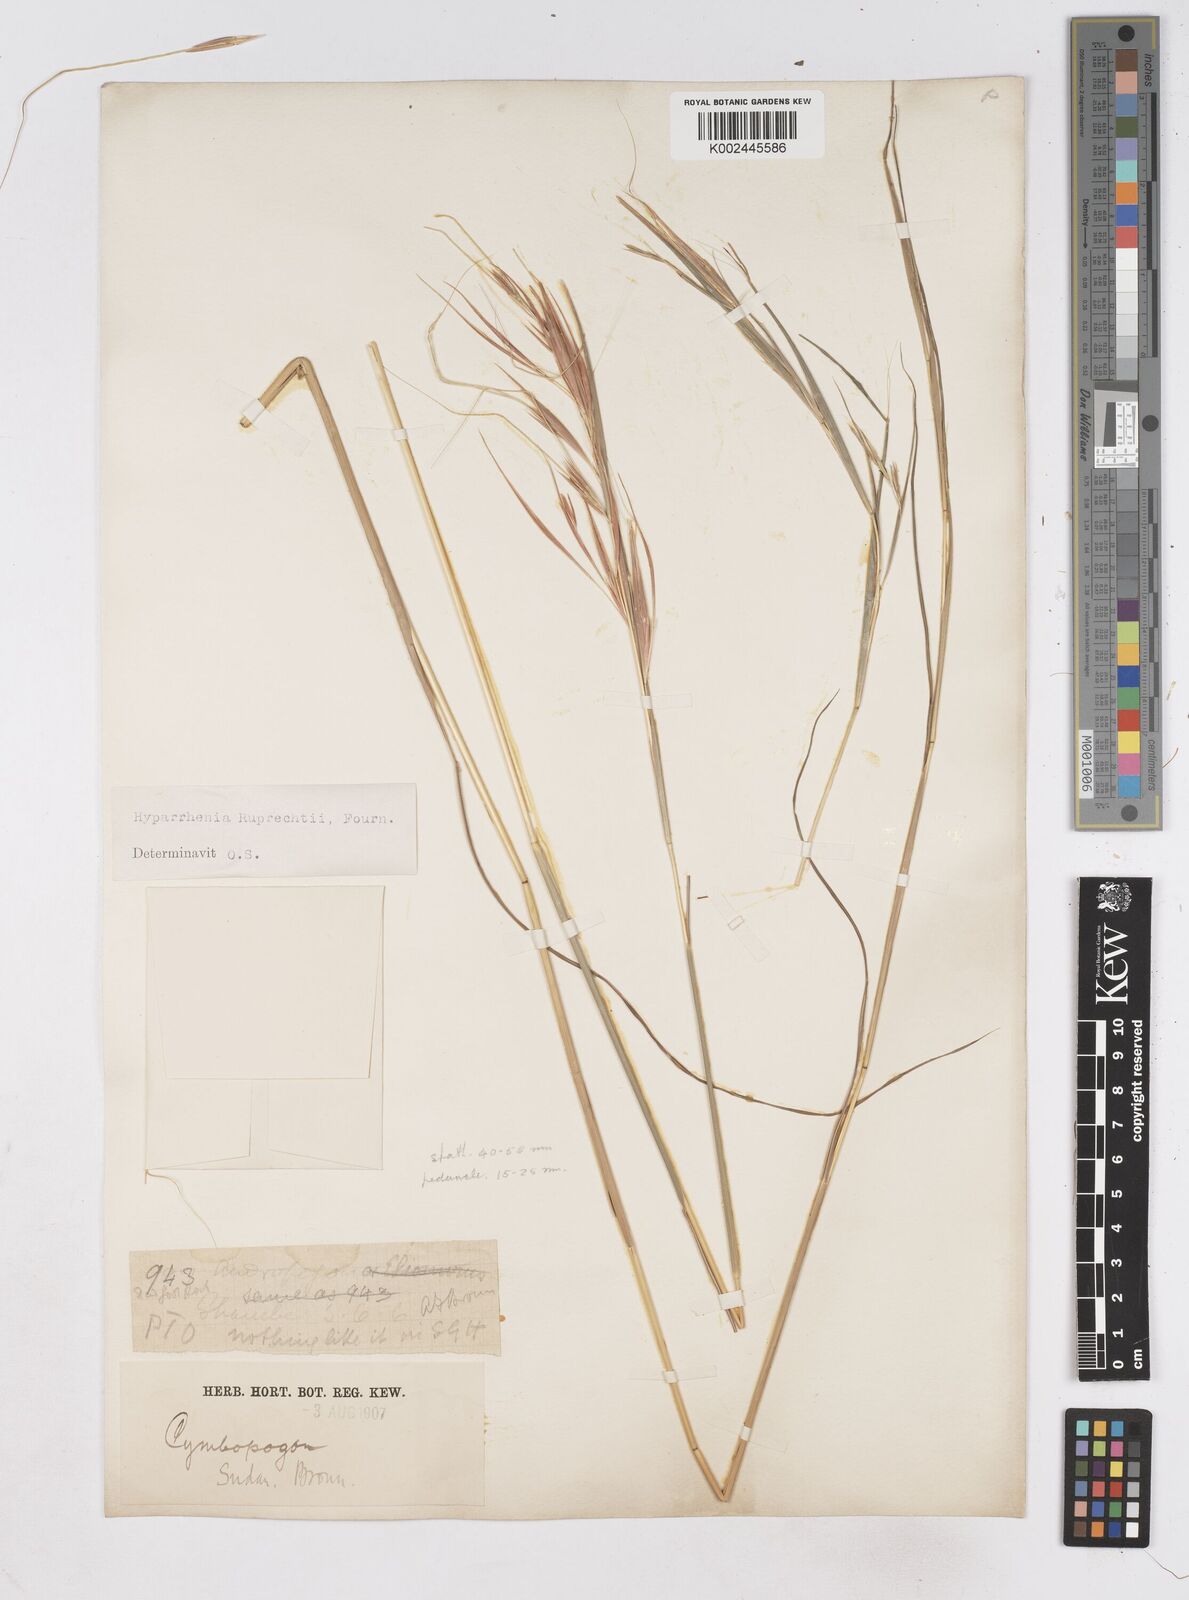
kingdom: Plantae
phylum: Tracheophyta
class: Liliopsida
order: Poales
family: Poaceae
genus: Hyperthelia
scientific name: Hyperthelia dissoluta
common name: Yellow thatching grass
